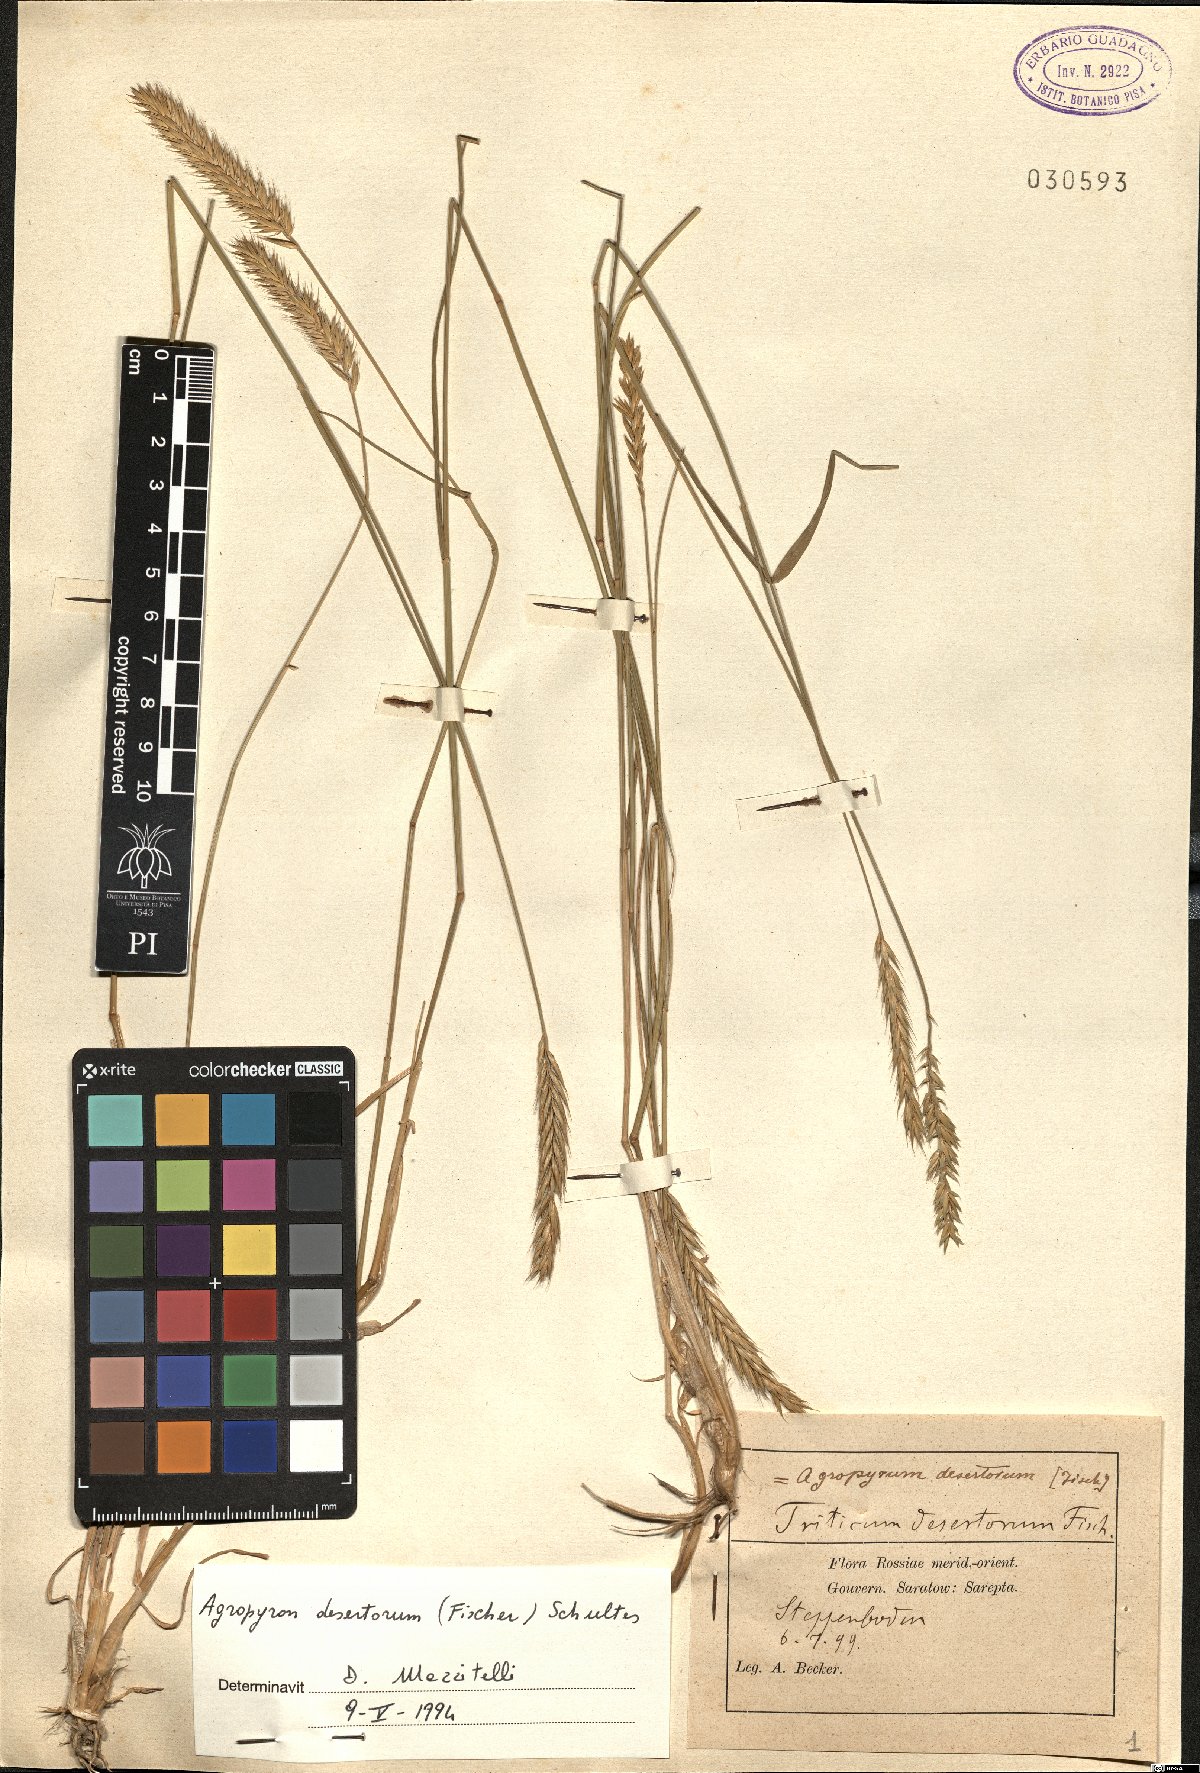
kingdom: Plantae
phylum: Tracheophyta
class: Liliopsida
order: Poales
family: Poaceae
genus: Agropyron
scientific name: Agropyron desertorum
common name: Desert wheatgrass
